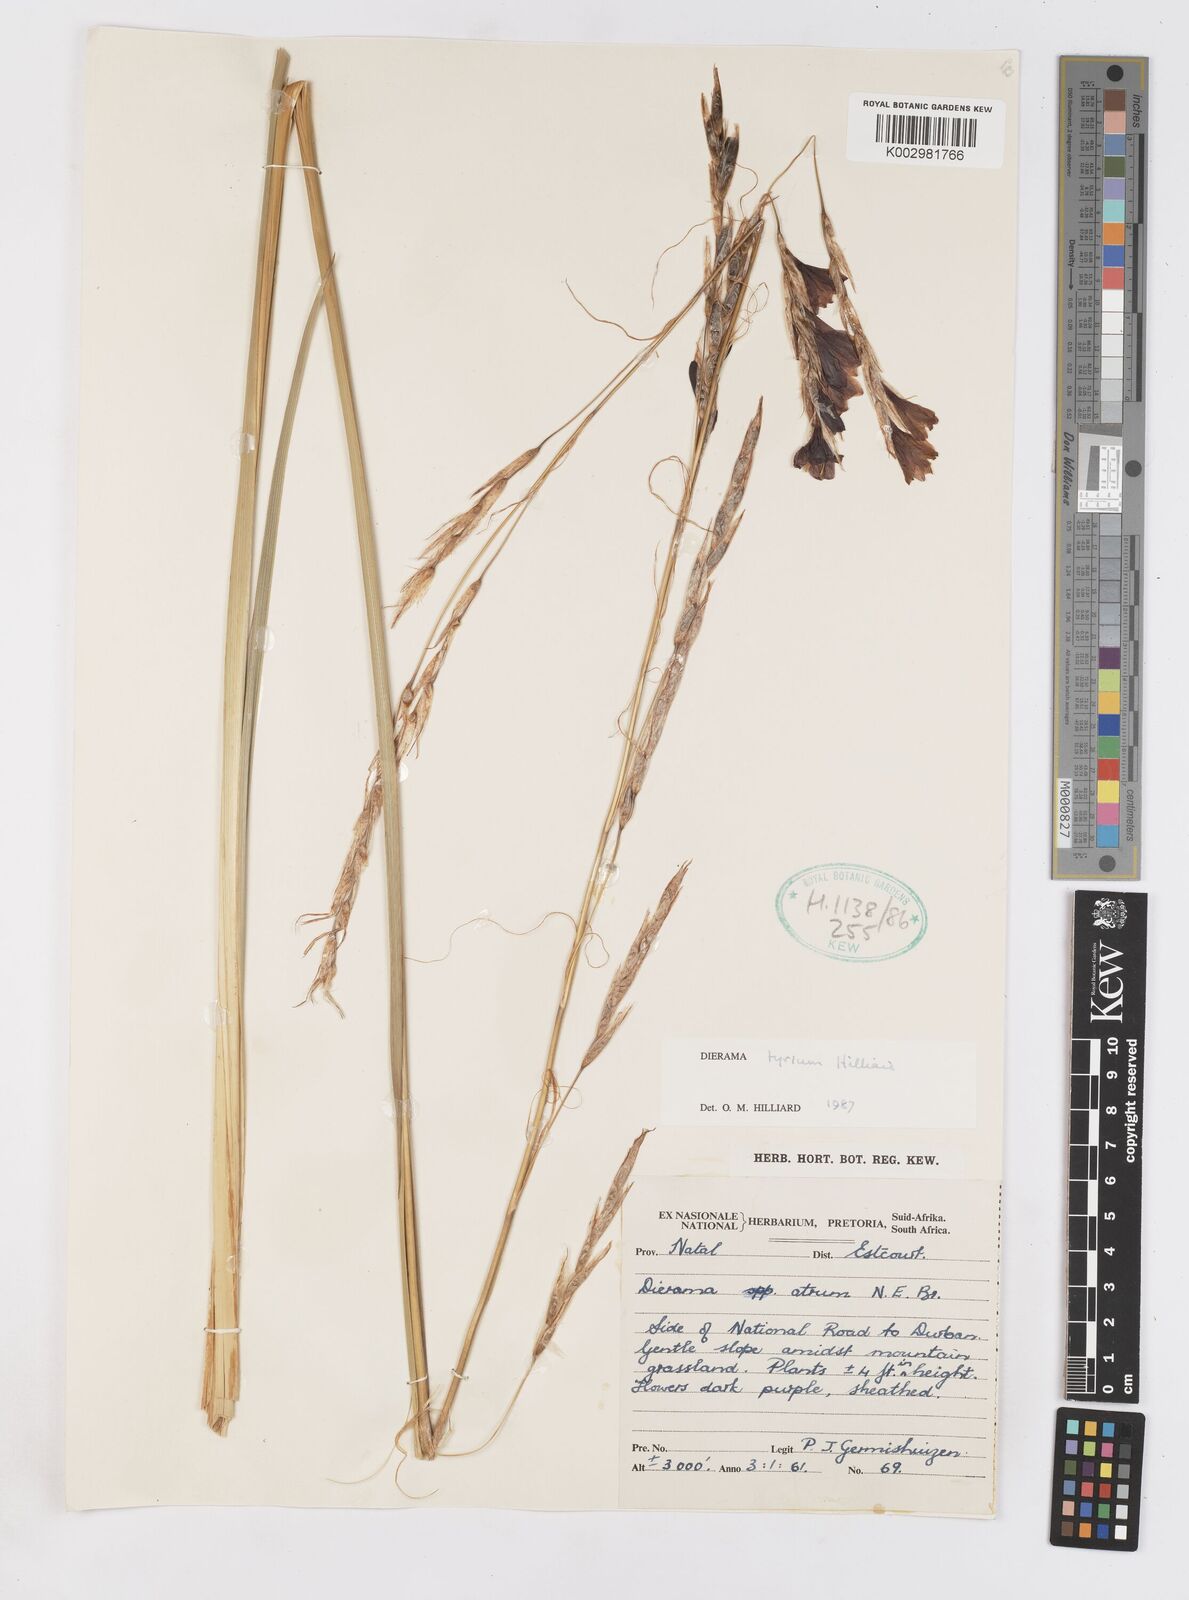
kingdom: Plantae
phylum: Tracheophyta
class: Liliopsida
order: Asparagales
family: Iridaceae
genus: Dierama
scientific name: Dierama tyrium
